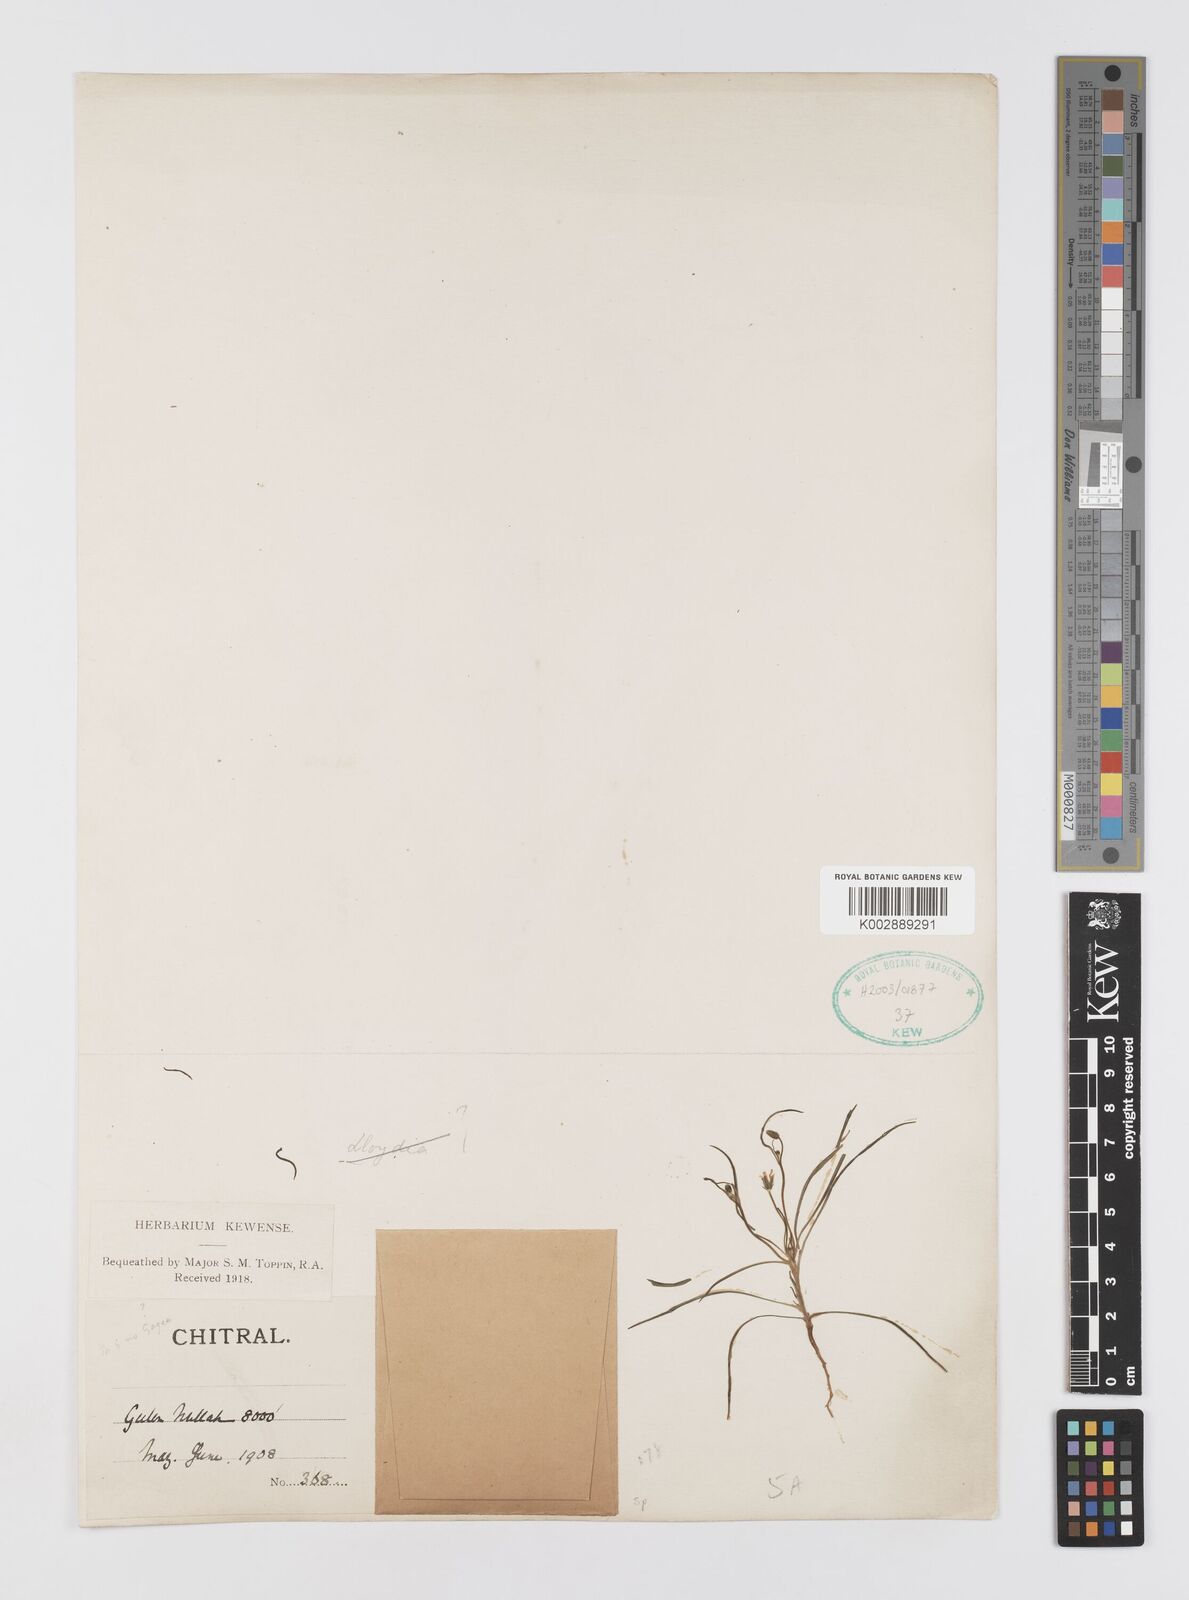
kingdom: Plantae
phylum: Tracheophyta
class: Liliopsida
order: Liliales
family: Liliaceae
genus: Gagea
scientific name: Gagea
